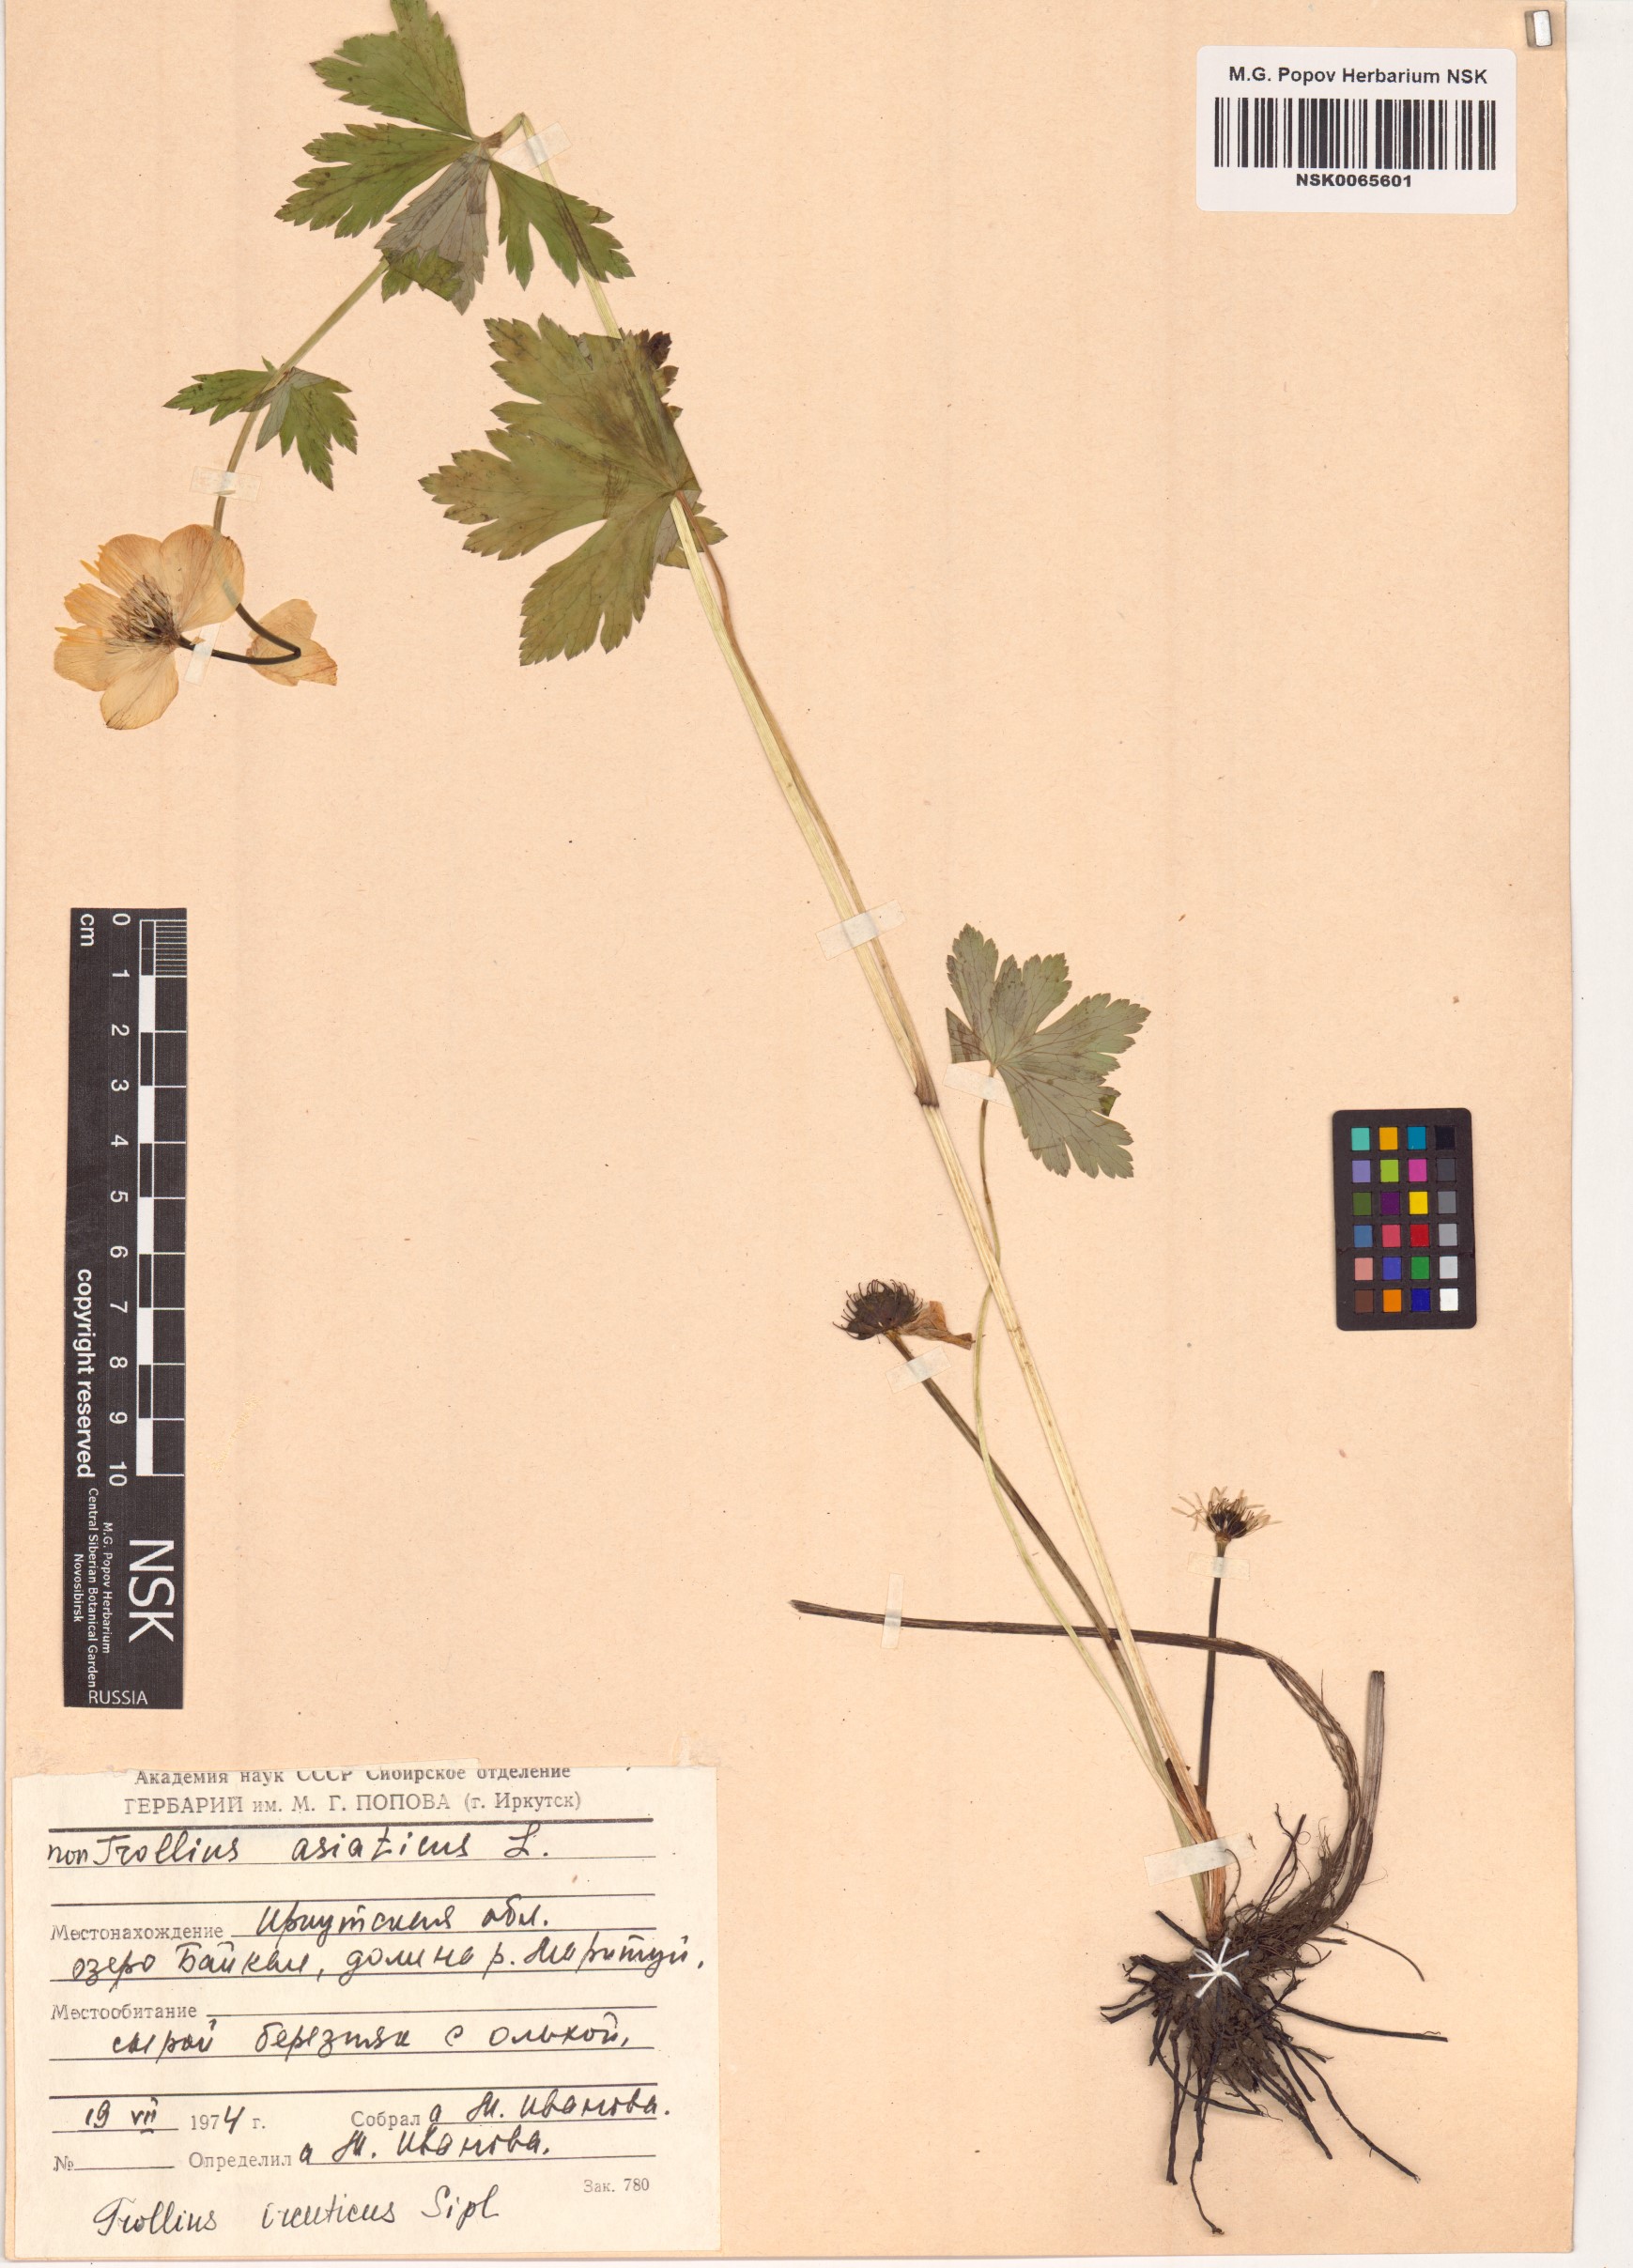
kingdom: Plantae
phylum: Tracheophyta
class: Magnoliopsida
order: Ranunculales
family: Ranunculaceae
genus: Trollius
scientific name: Trollius kytmanovii
